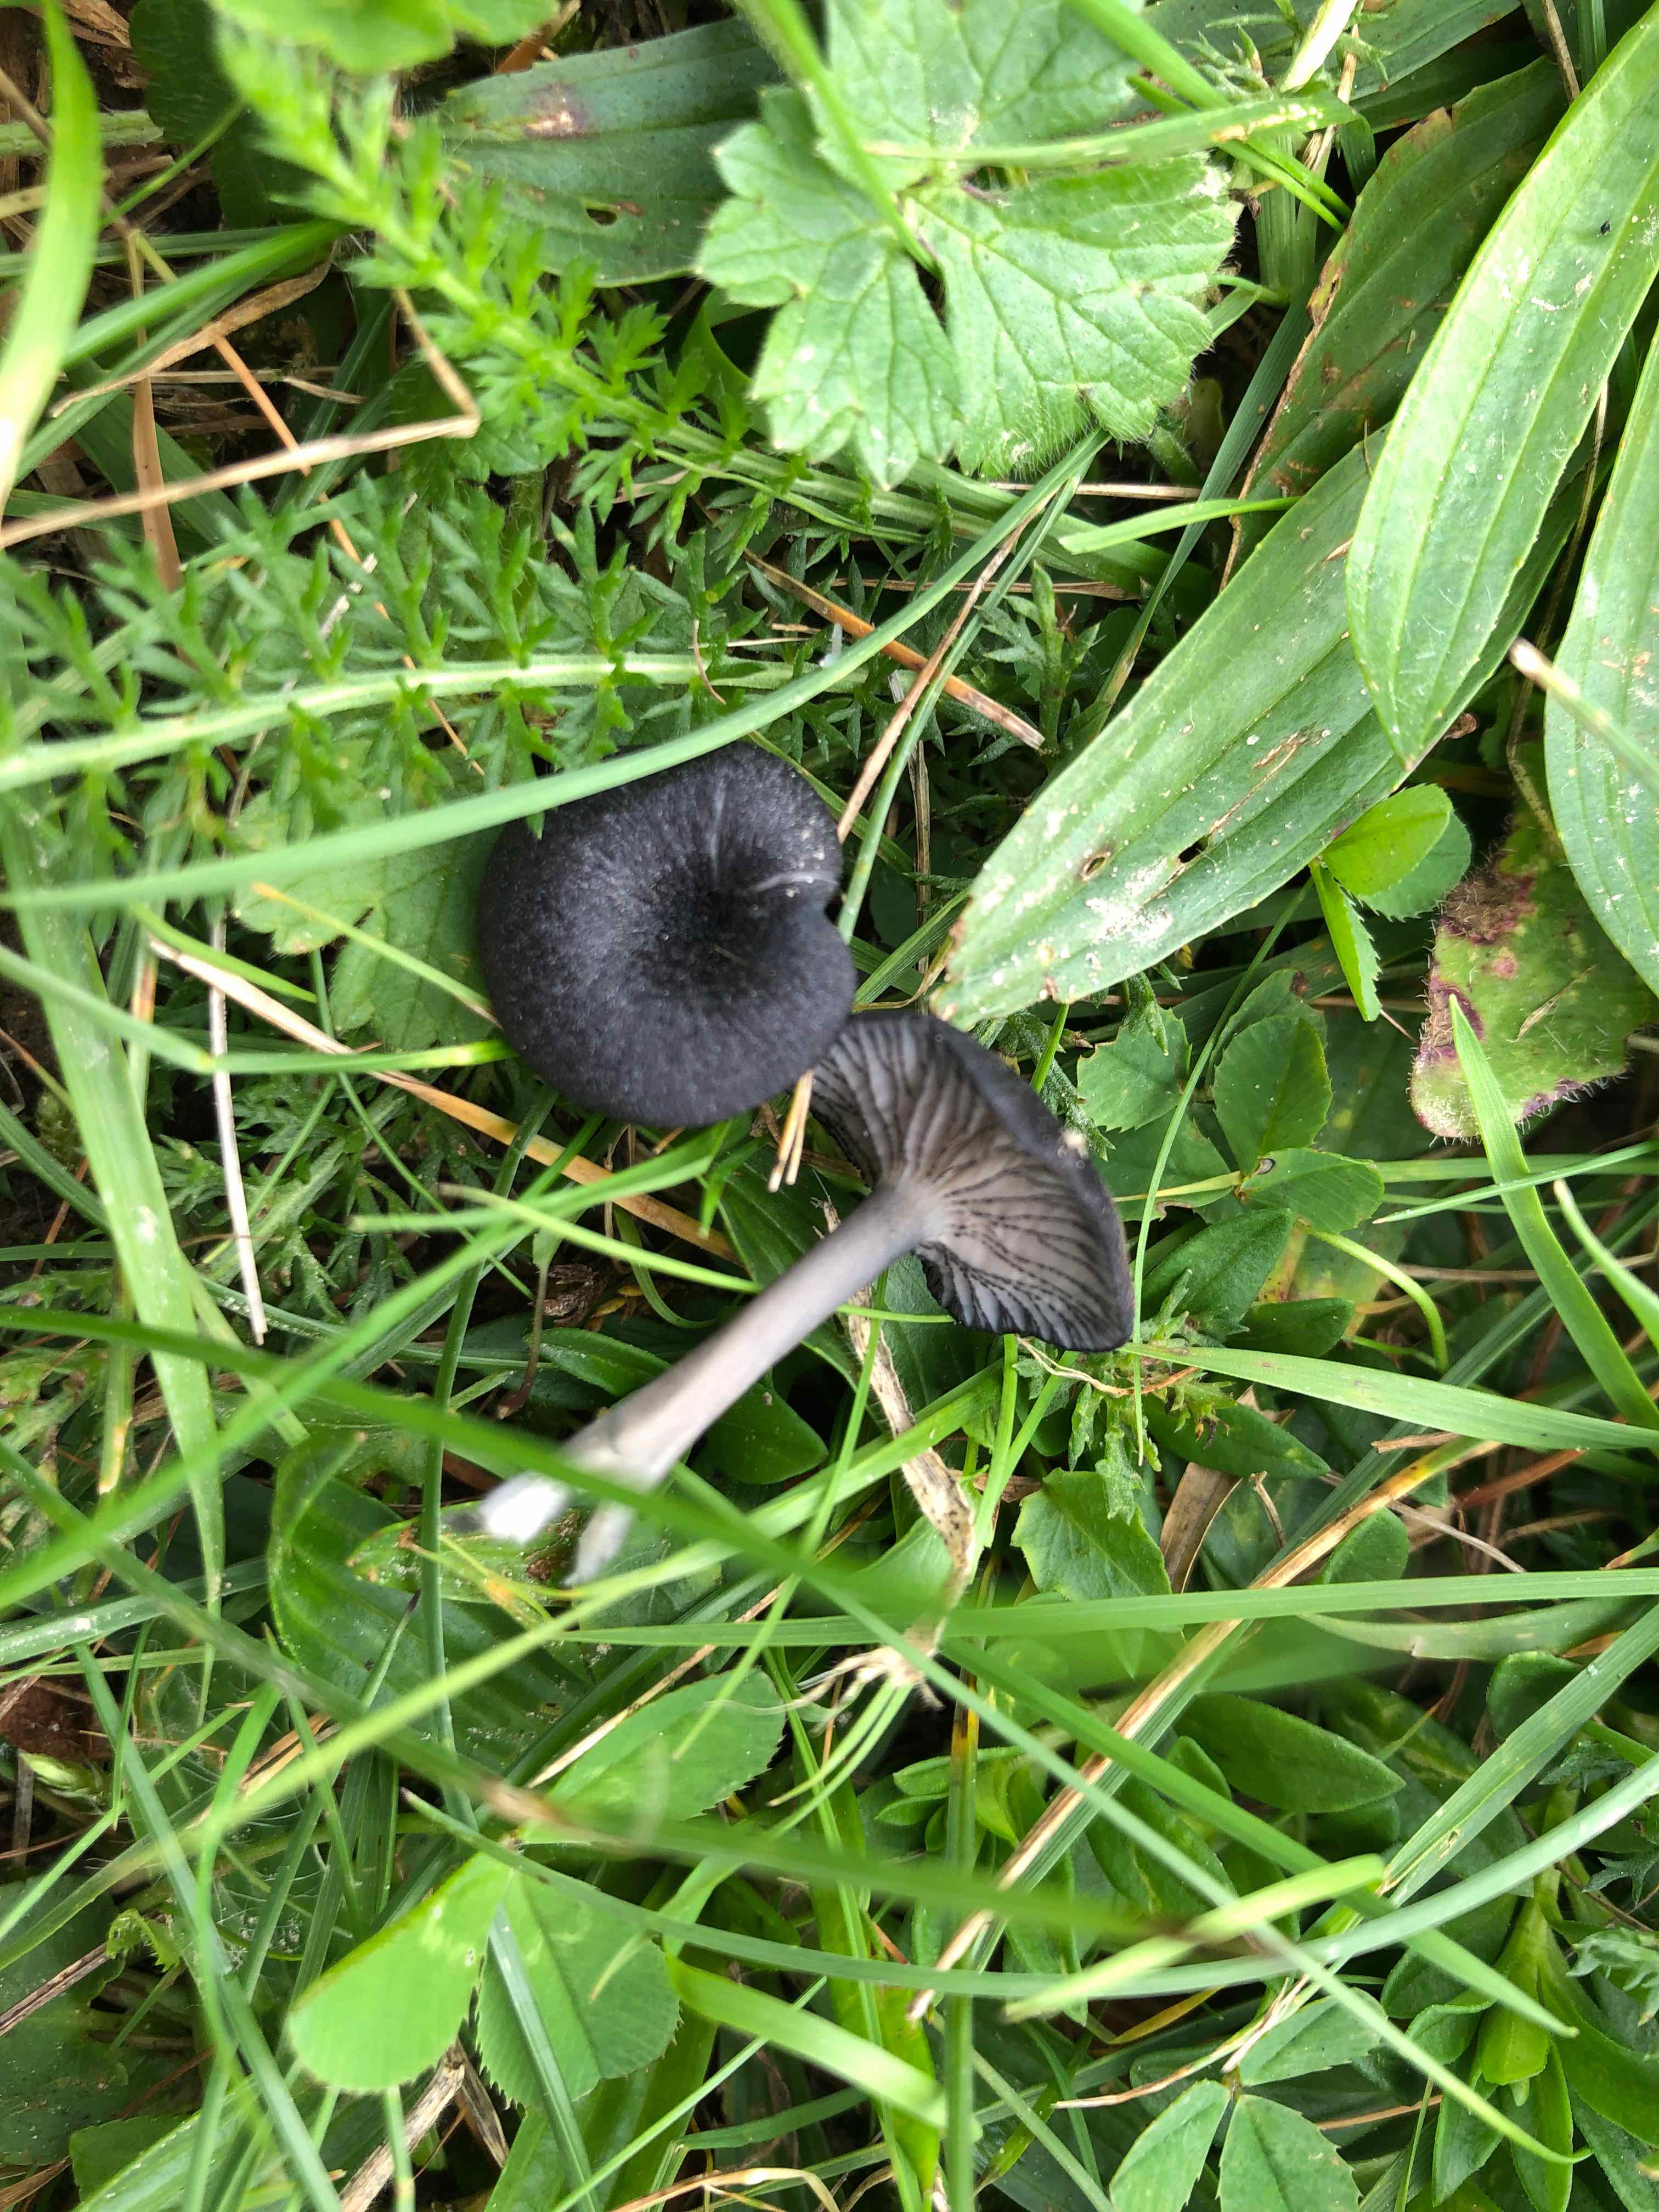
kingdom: Fungi
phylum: Basidiomycota
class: Agaricomycetes
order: Agaricales
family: Entolomataceae
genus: Entoloma
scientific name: Entoloma
